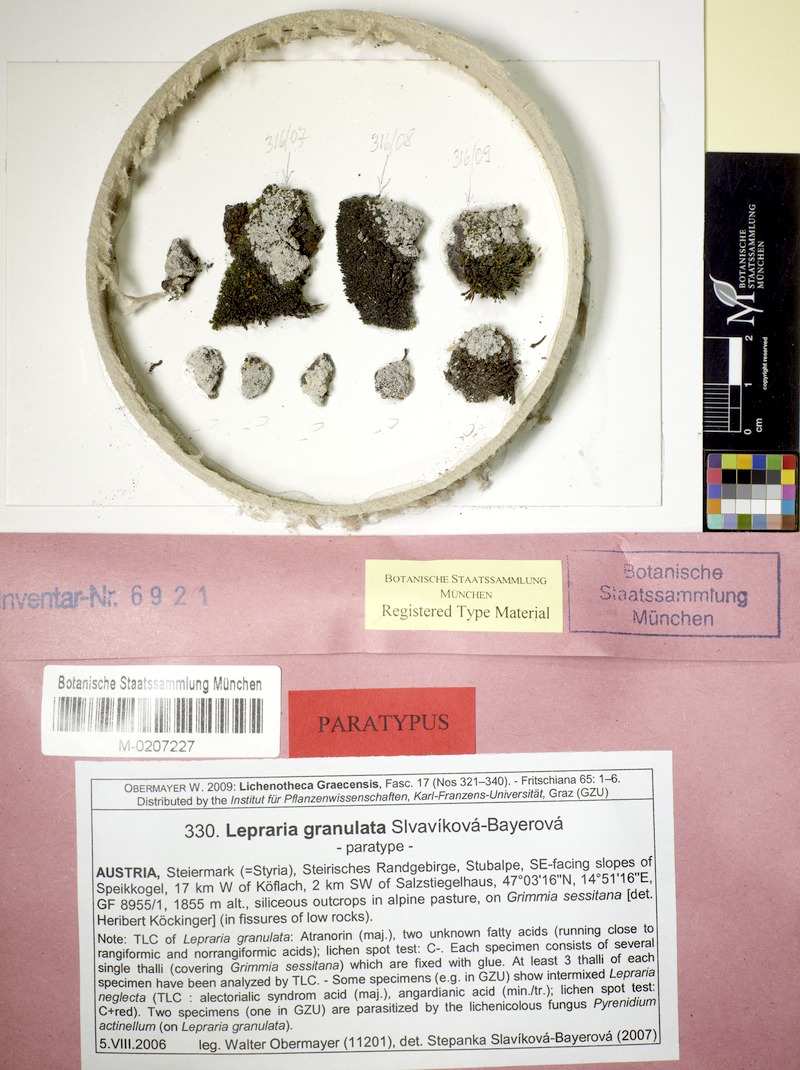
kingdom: Fungi
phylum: Ascomycota
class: Lecanoromycetes
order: Lecanorales
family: Stereocaulaceae
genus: Lepraria
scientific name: Lepraria granulata
